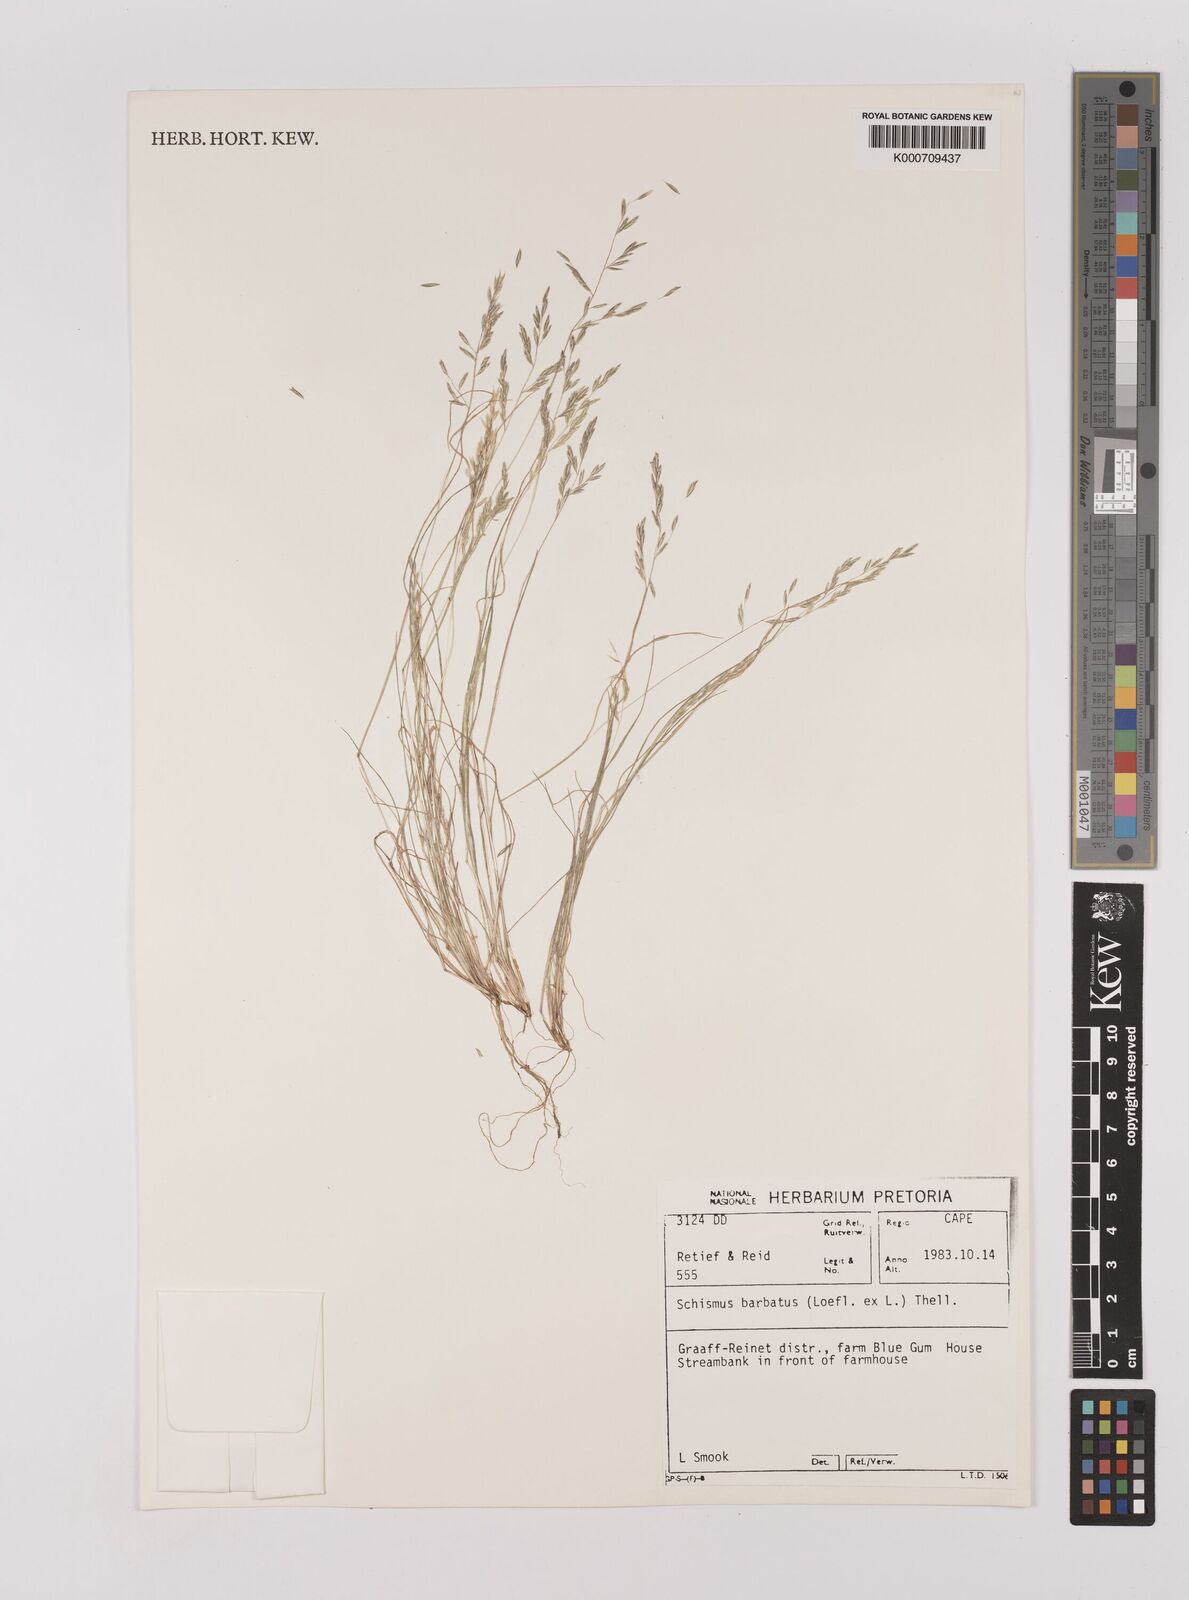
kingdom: Plantae
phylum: Tracheophyta
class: Liliopsida
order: Poales
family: Poaceae
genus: Schismus
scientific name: Schismus barbatus
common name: Kelch-grass
